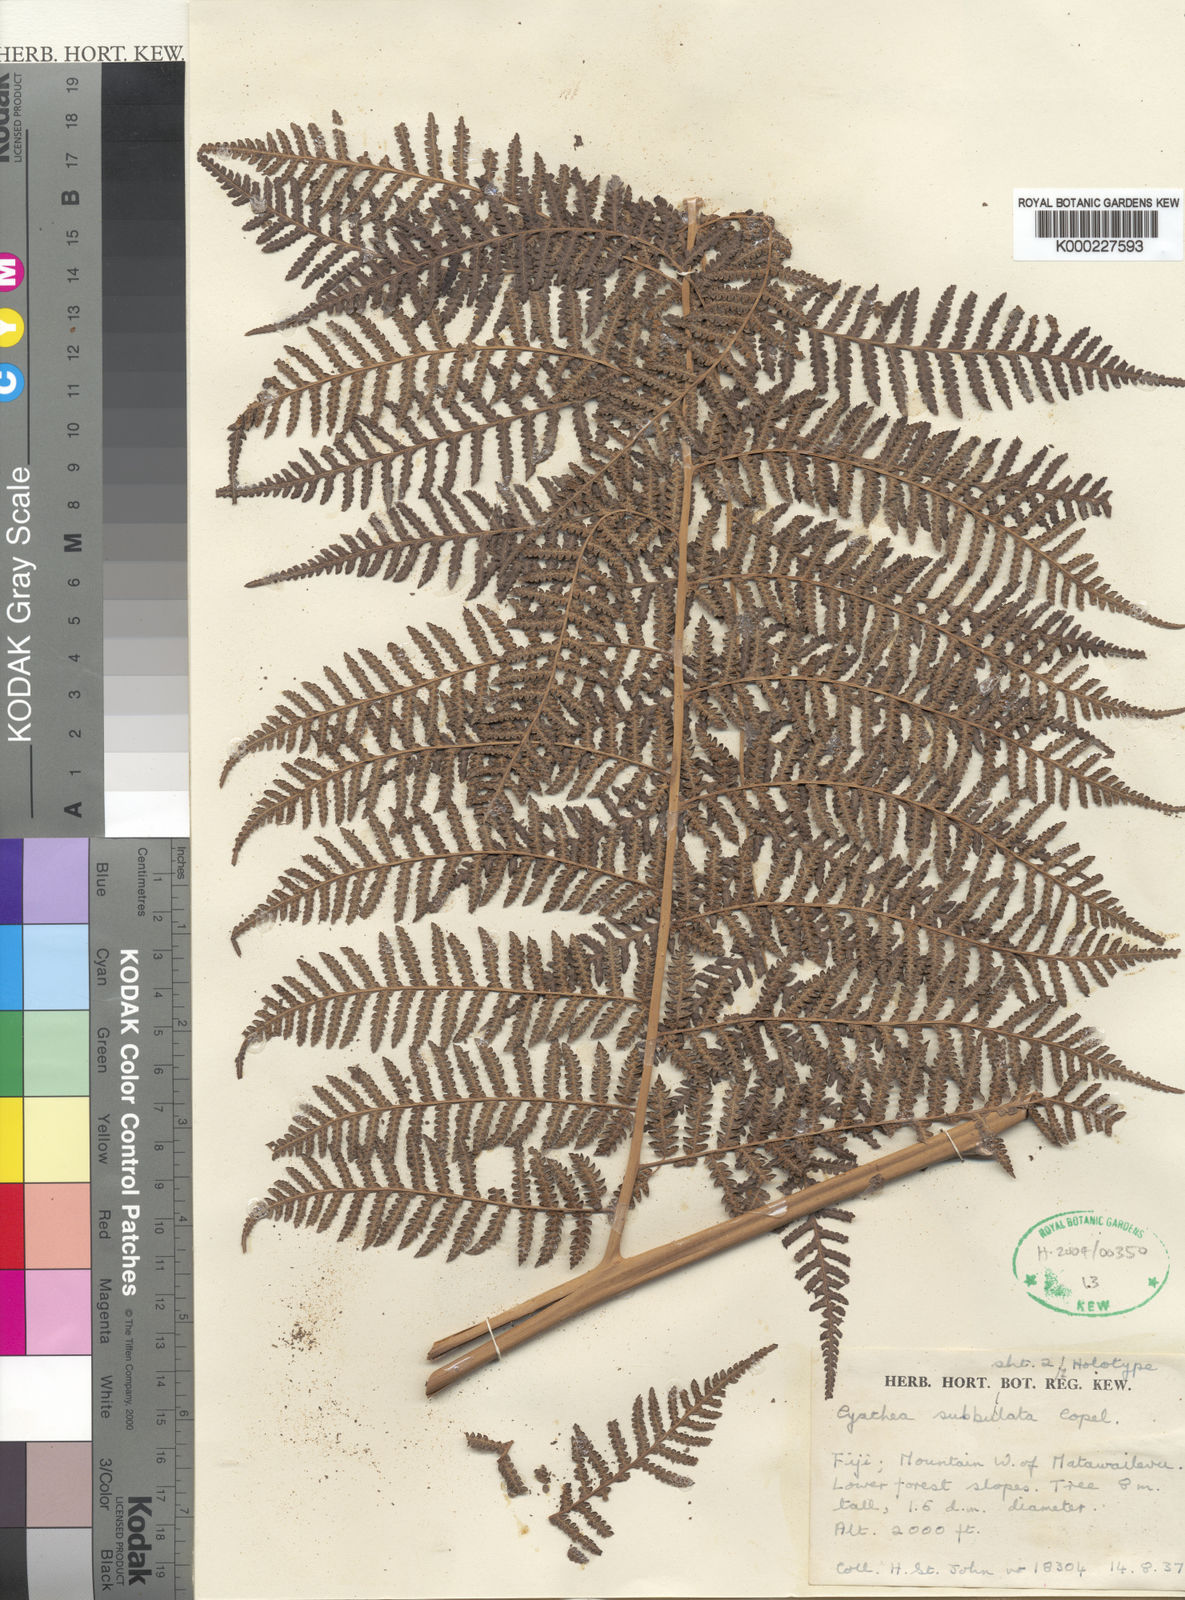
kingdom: Plantae
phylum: Tracheophyta
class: Polypodiopsida
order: Cyatheales
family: Cyatheaceae
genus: Cyathea
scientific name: Cyathea decurrens
